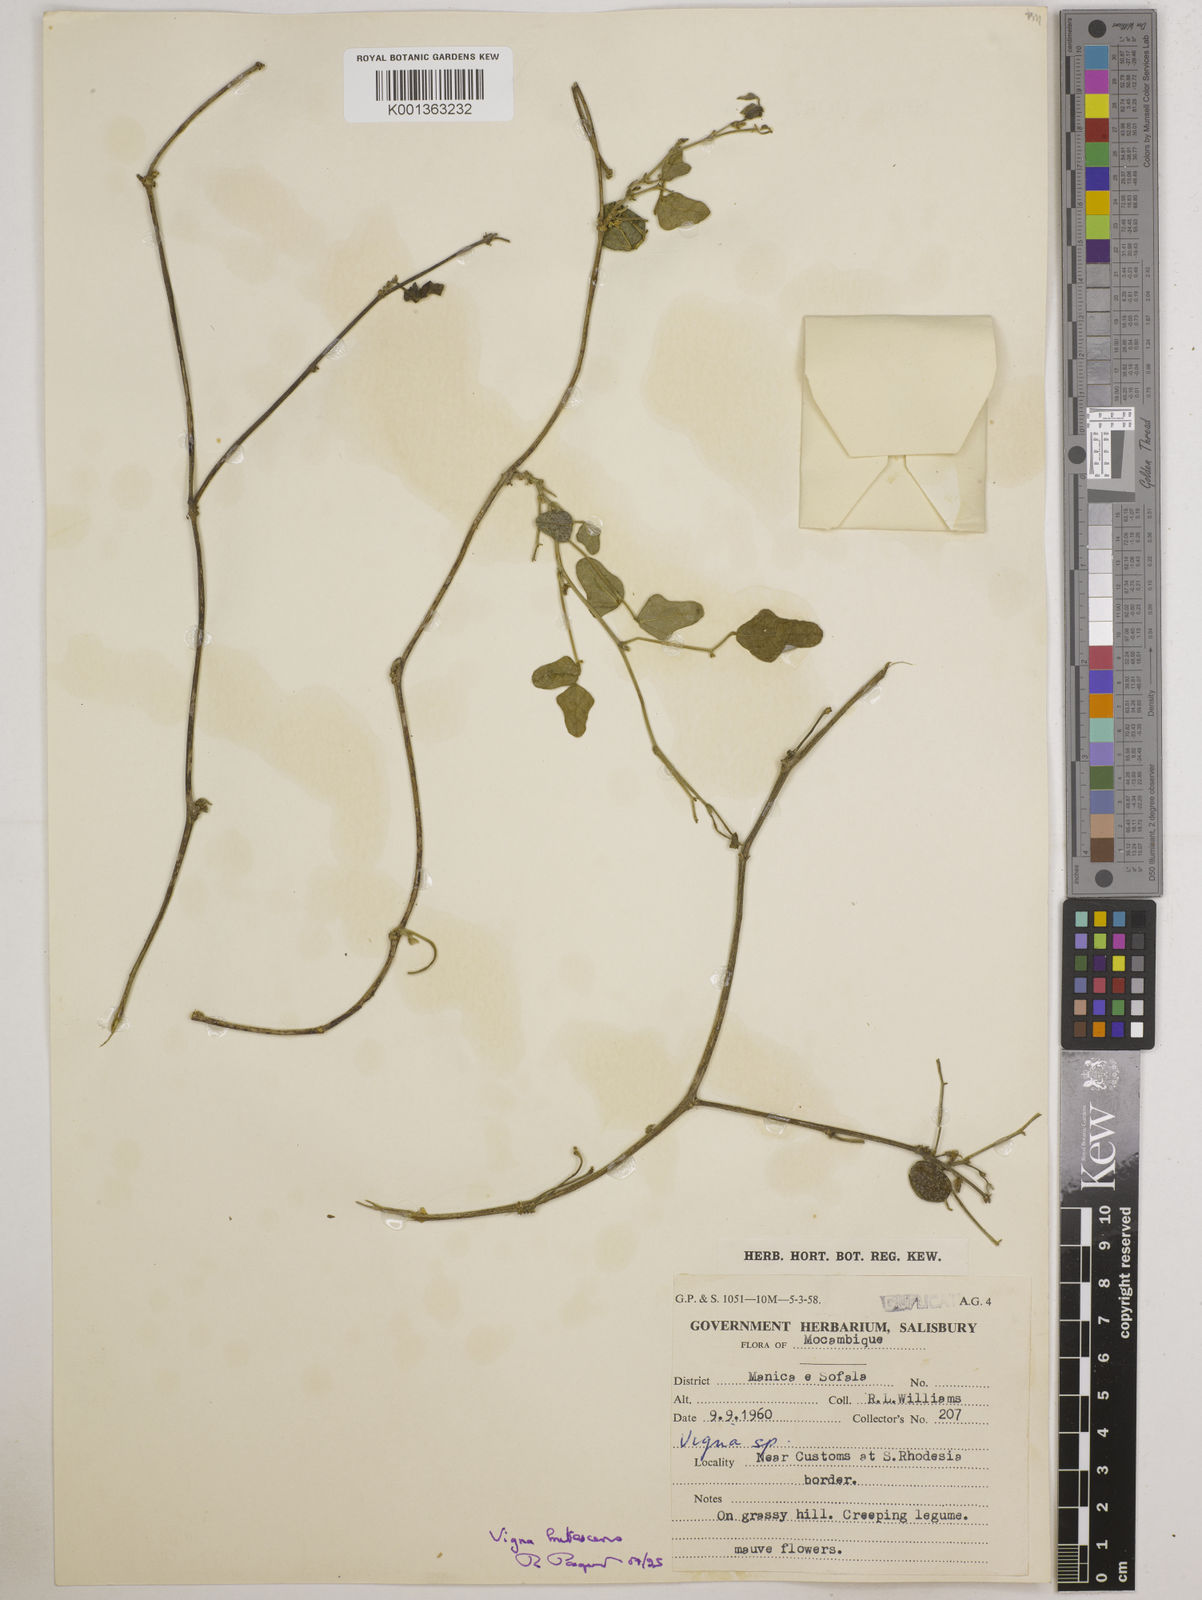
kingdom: Plantae
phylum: Tracheophyta
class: Magnoliopsida
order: Fabales
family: Fabaceae
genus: Vigna
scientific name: Vigna
